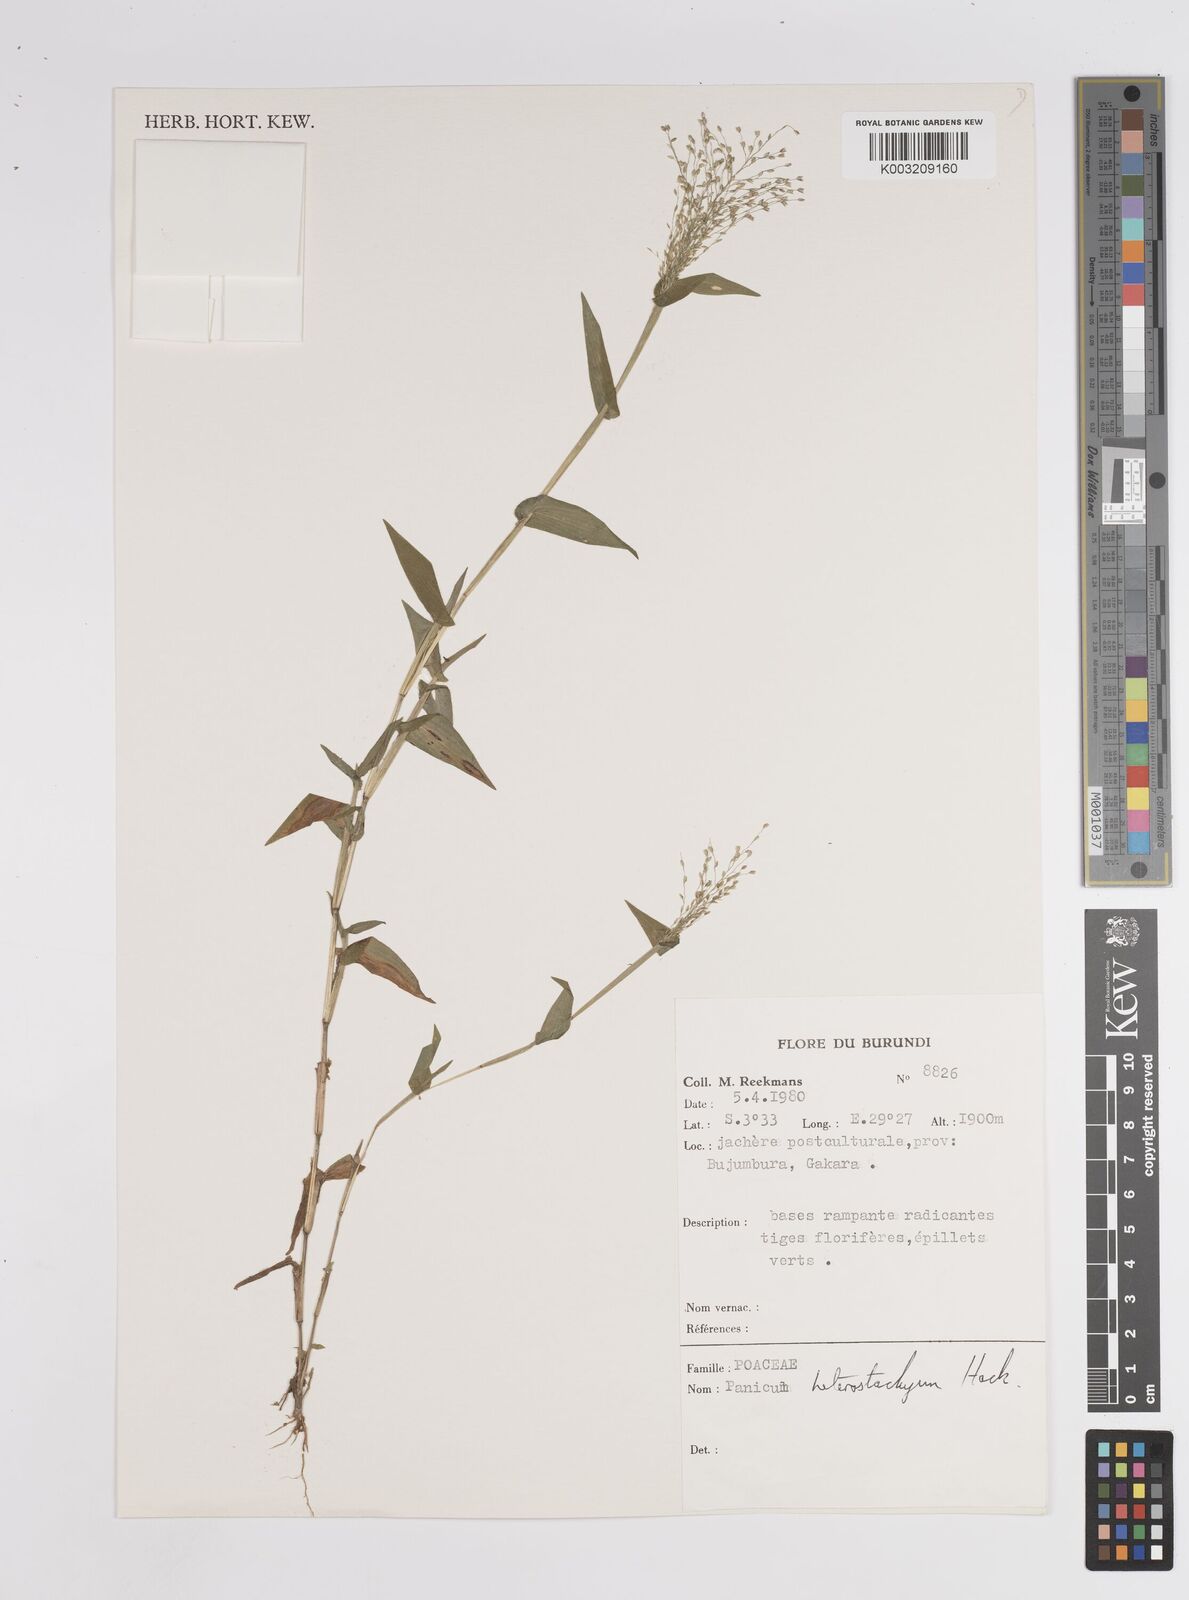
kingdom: Plantae
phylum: Tracheophyta
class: Liliopsida
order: Poales
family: Poaceae
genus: Pseudechinolaena
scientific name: Pseudechinolaena polystachya
